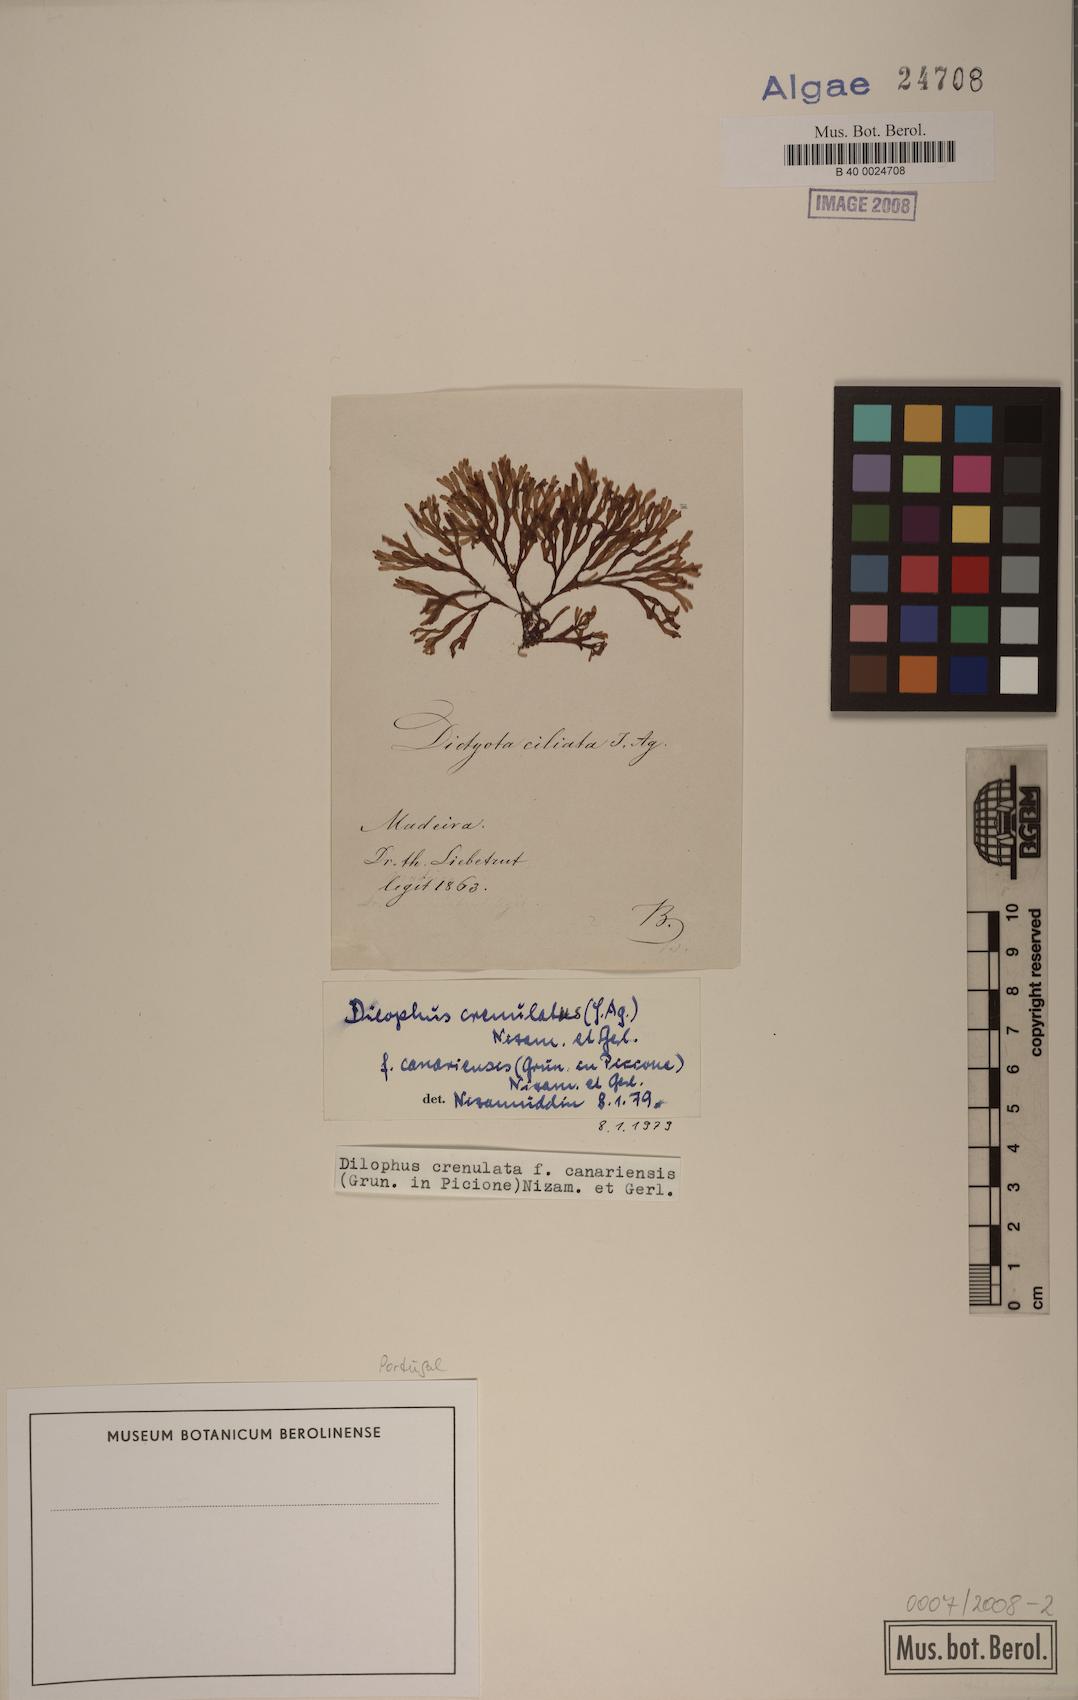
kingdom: Chromista
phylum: Ochrophyta
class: Phaeophyceae
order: Dictyotales
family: Dictyotaceae
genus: Dictyota
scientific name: Dictyota crenulata
